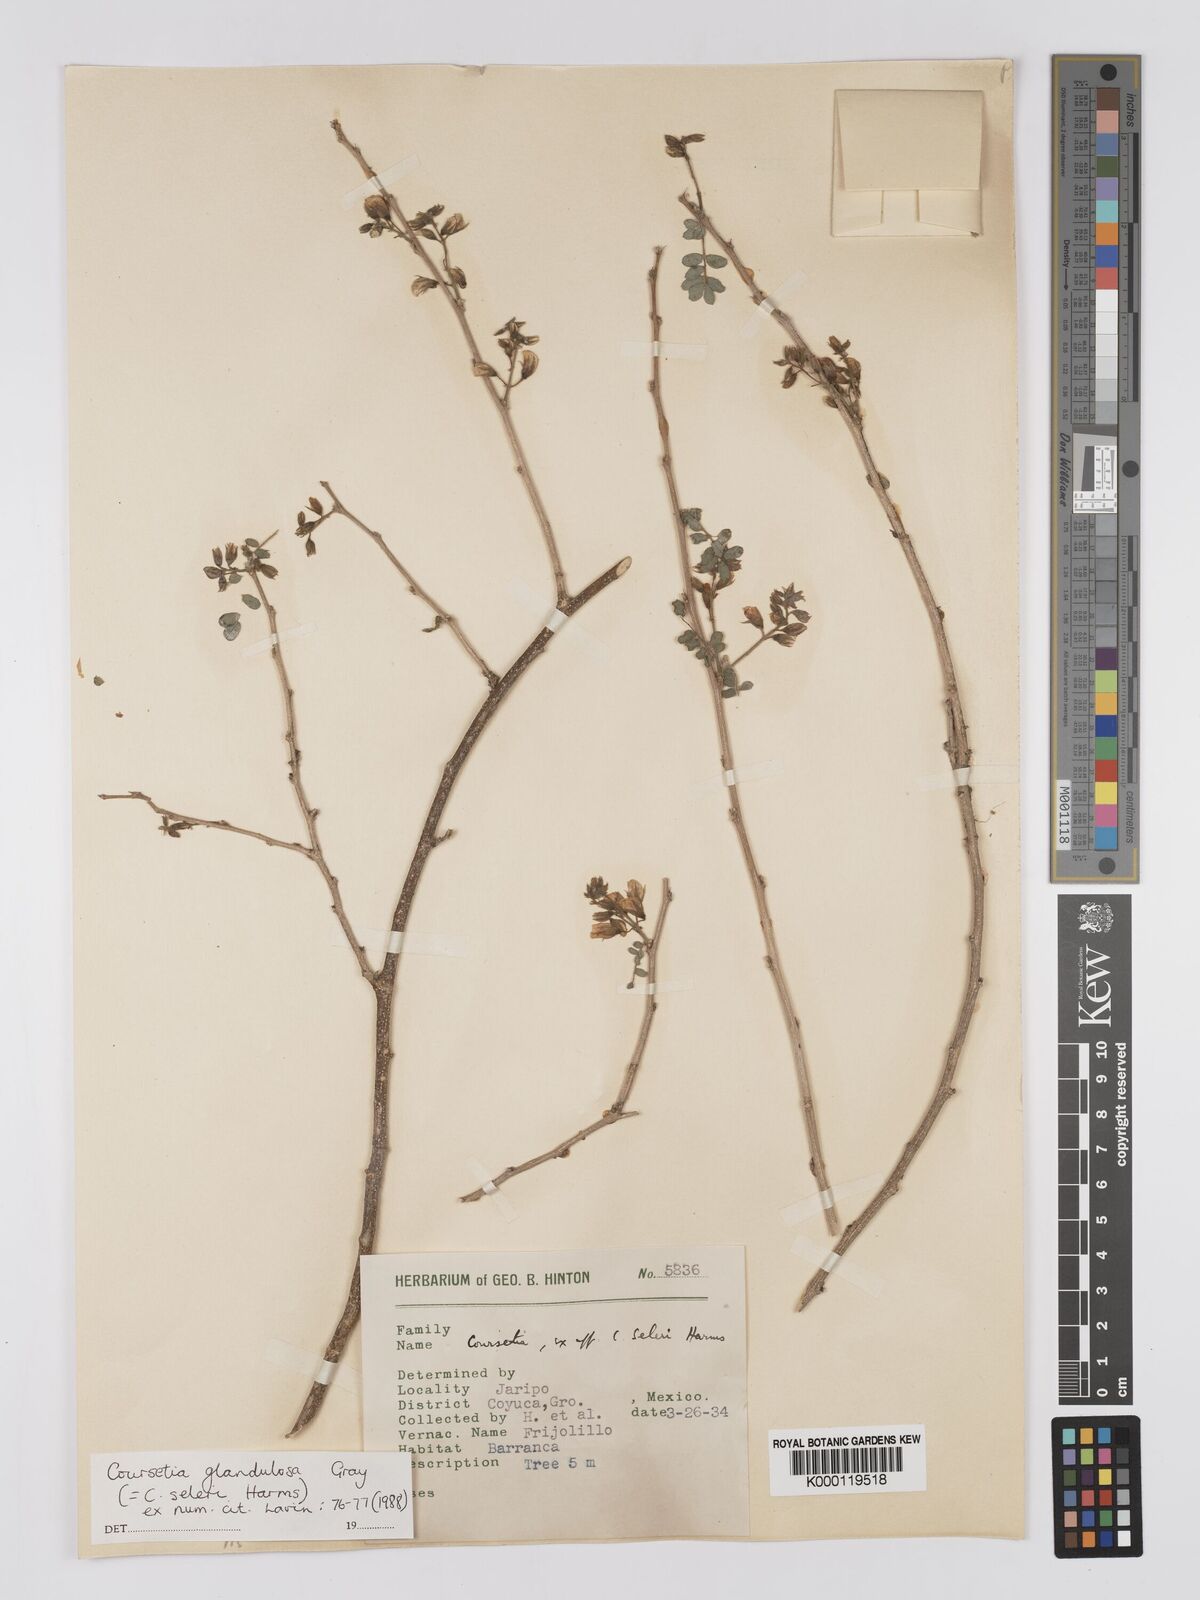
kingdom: Plantae
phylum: Tracheophyta
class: Magnoliopsida
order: Fabales
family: Fabaceae
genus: Coursetia
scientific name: Coursetia glandulosa
